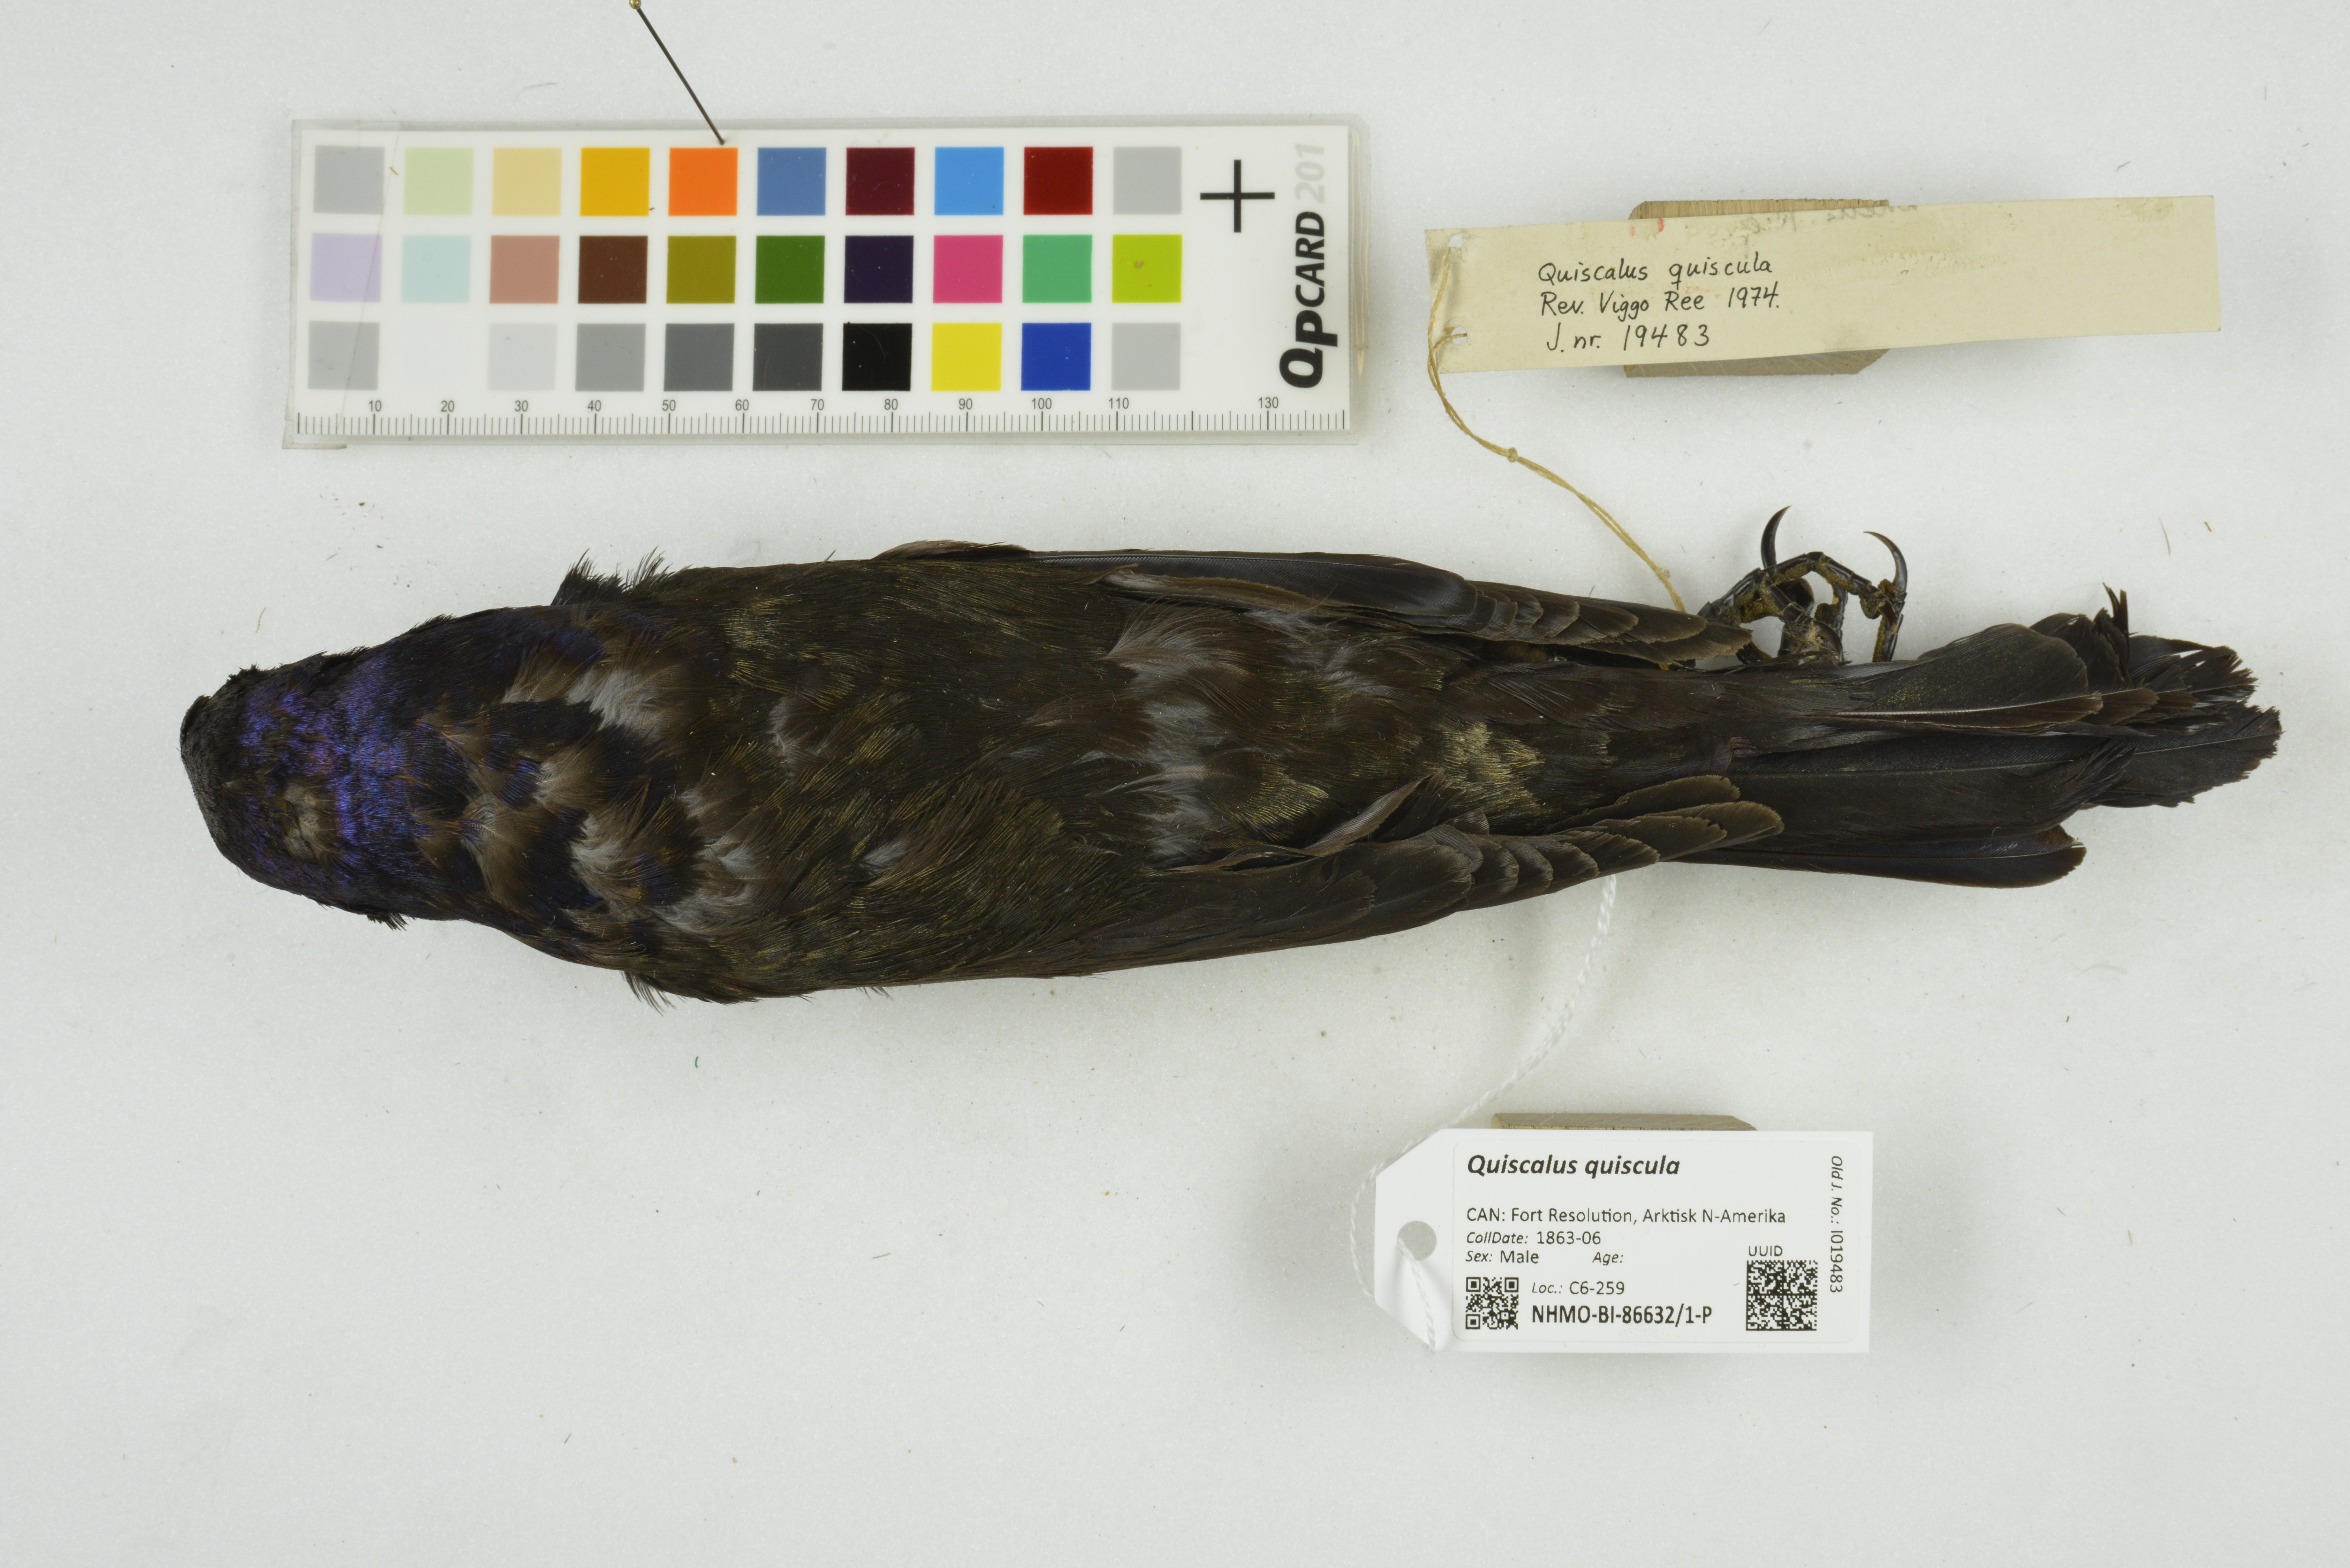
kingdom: Animalia
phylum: Chordata
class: Aves
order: Passeriformes
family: Icteridae
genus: Quiscalus
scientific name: Quiscalus quiscula
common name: Common grackle
